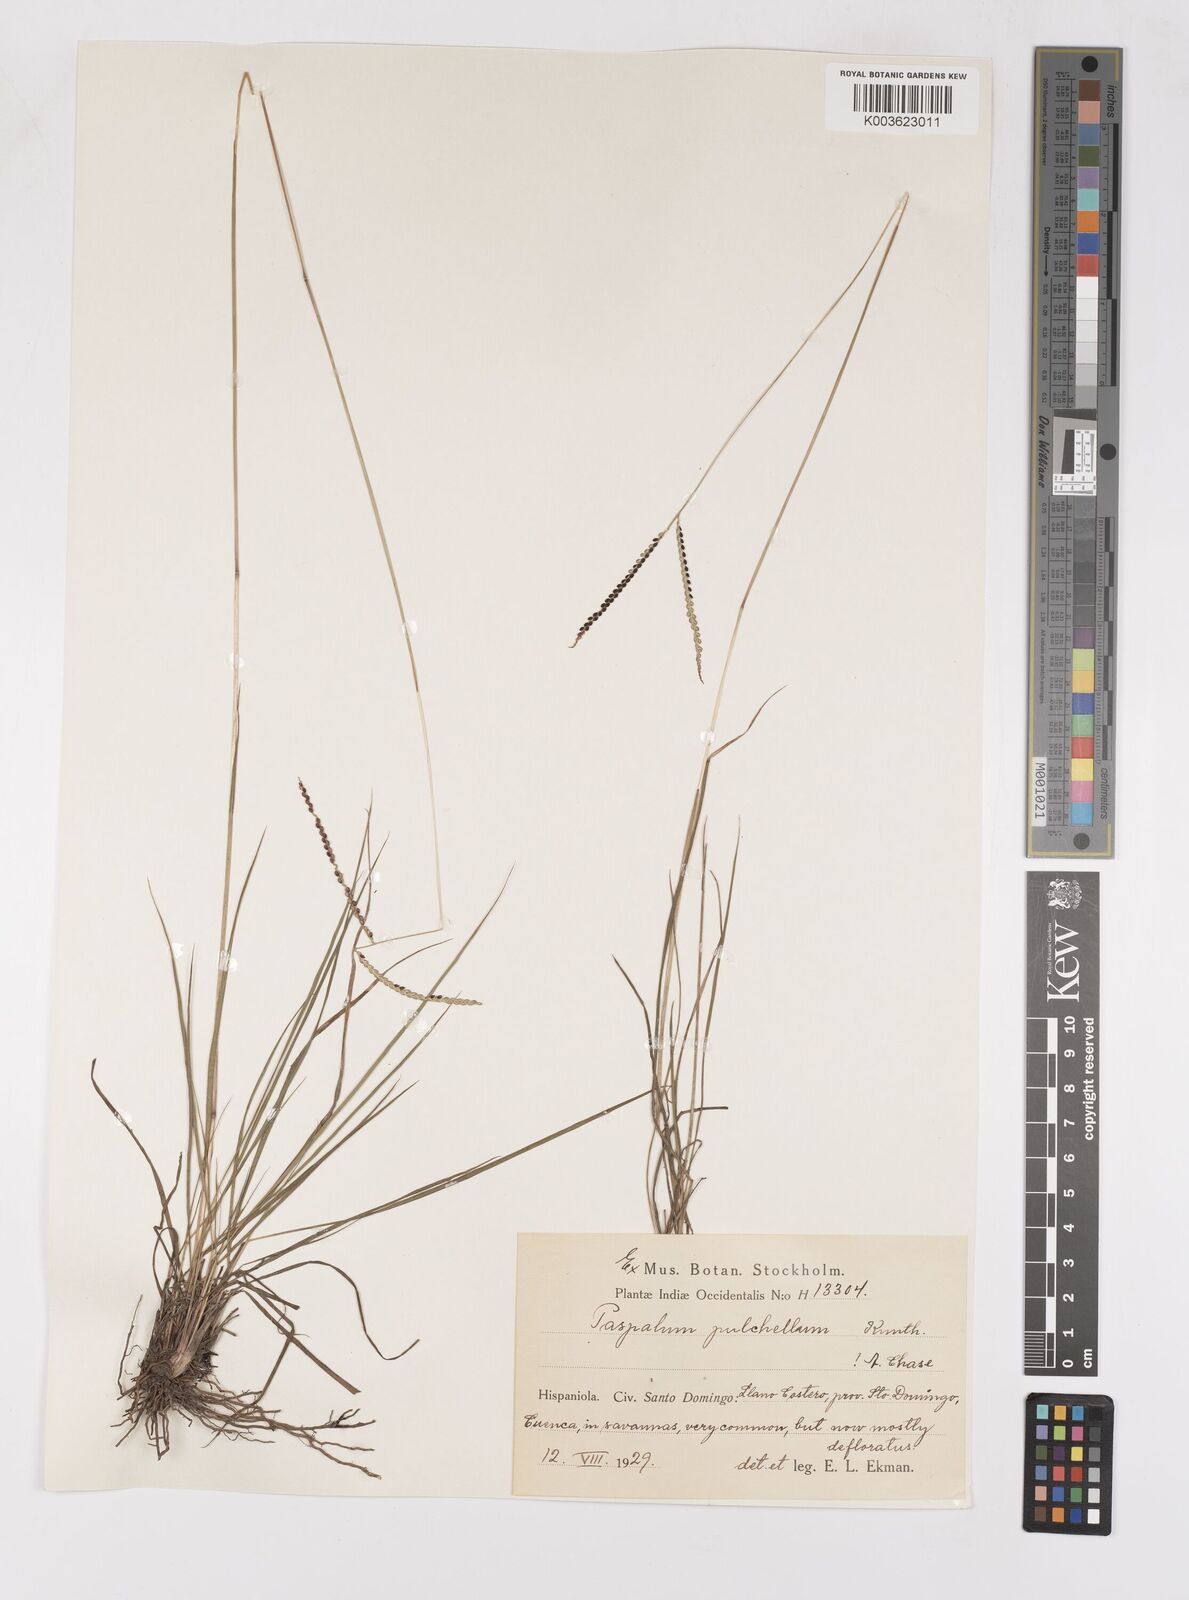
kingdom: Plantae
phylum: Tracheophyta
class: Liliopsida
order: Poales
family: Poaceae
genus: Paspalum
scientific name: Paspalum pulchellum
